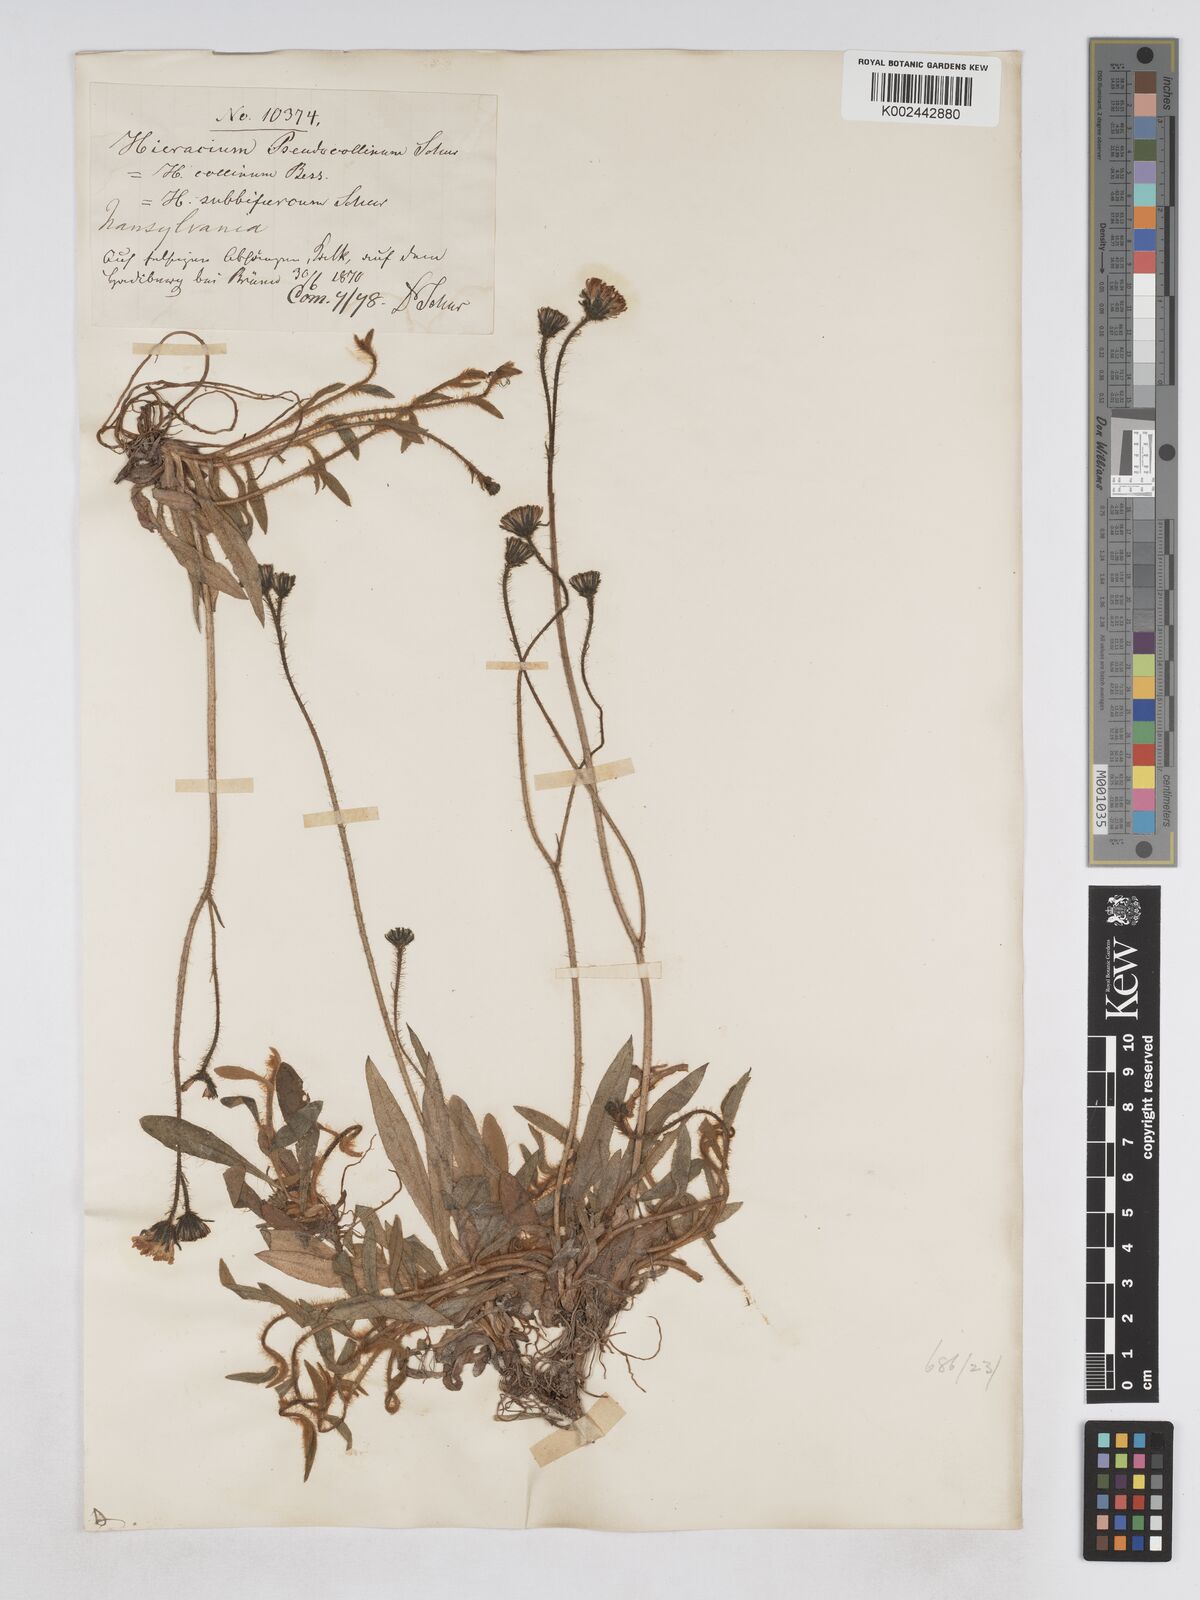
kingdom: Plantae
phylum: Tracheophyta
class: Magnoliopsida
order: Asterales
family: Asteraceae
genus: Pilosella
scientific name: Pilosella bifurca
